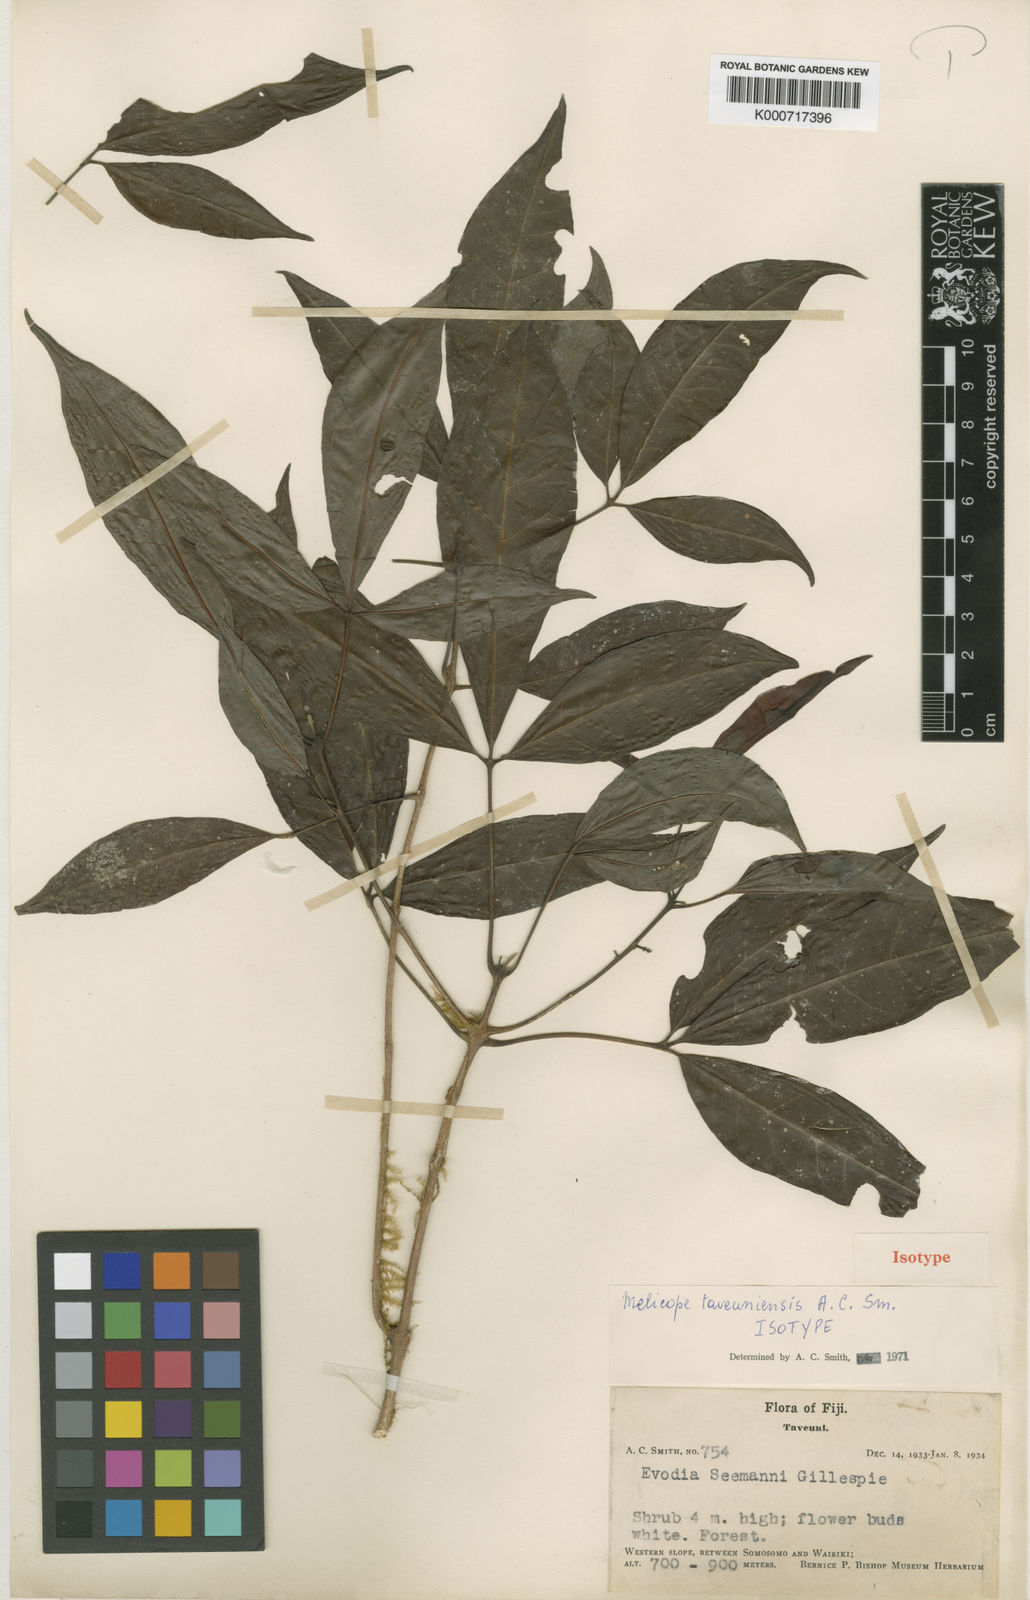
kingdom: Plantae
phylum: Tracheophyta
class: Magnoliopsida
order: Sapindales
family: Rutaceae
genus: Melicope
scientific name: Melicope taveuniensis
